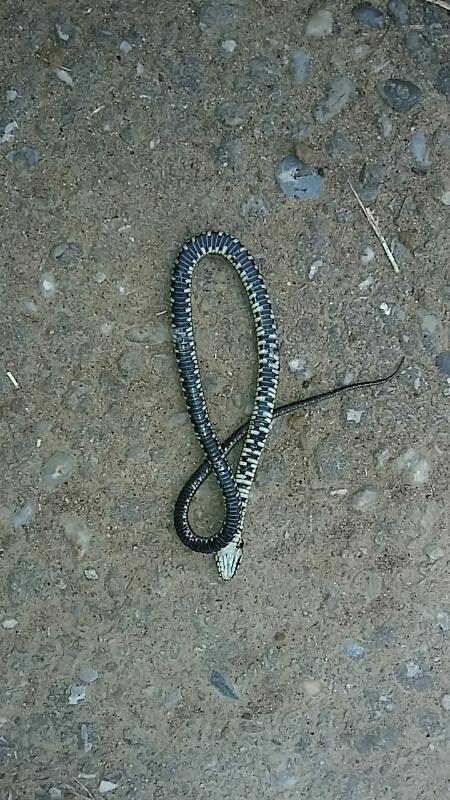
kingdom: Animalia
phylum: Chordata
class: Squamata
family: Colubridae
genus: Natrix
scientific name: Natrix natrix
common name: Grass snake
